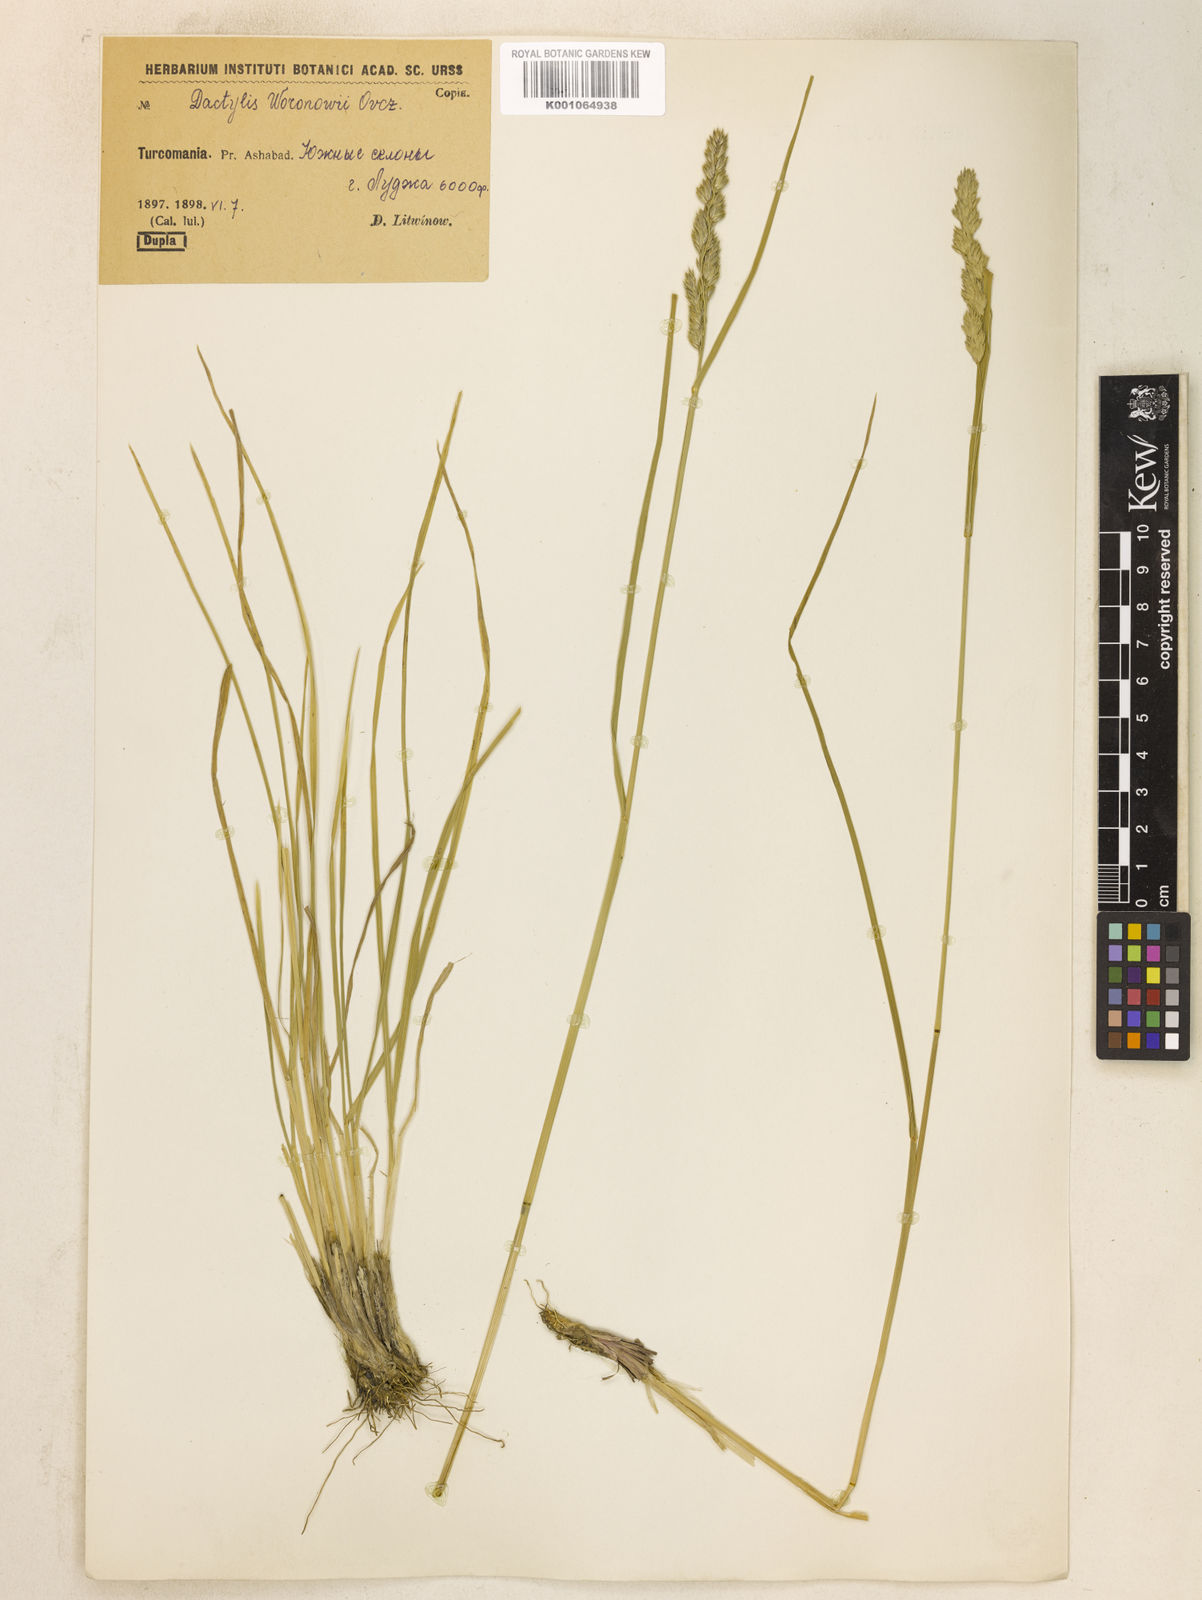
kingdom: Plantae
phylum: Tracheophyta
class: Liliopsida
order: Poales
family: Poaceae
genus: Dactylis
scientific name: Dactylis glomerata
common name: Orchardgrass
